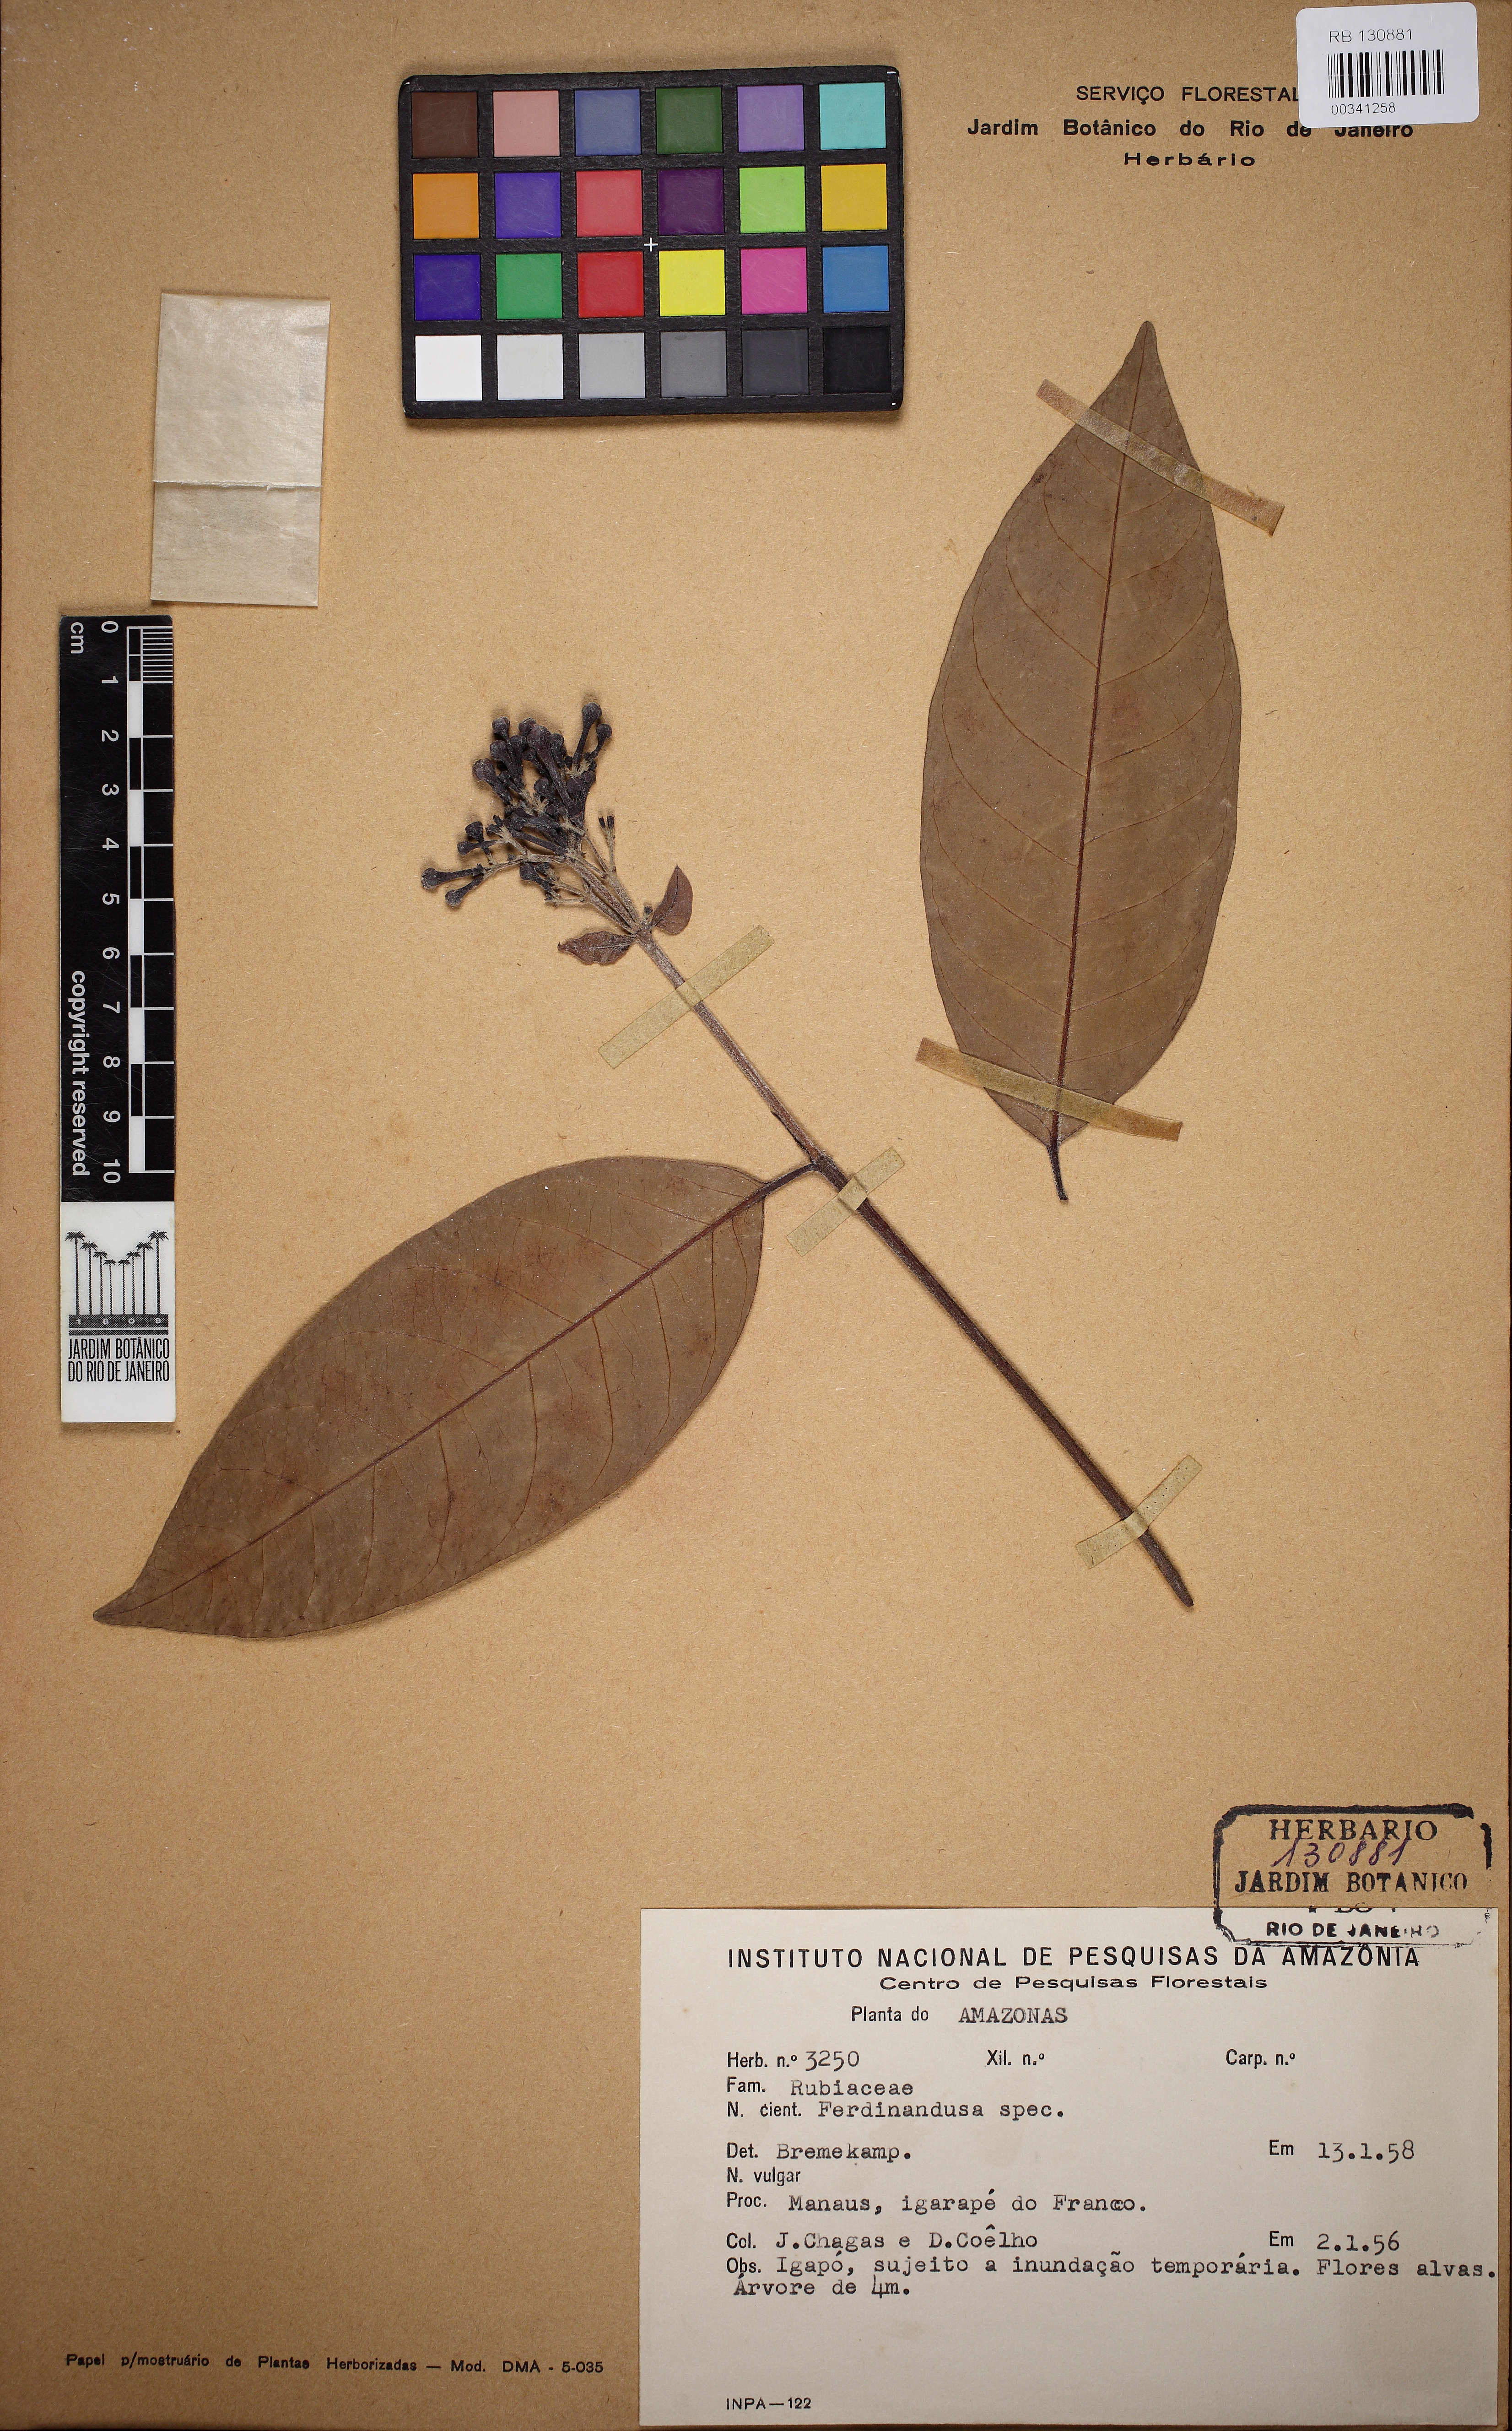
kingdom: Plantae
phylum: Tracheophyta
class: Magnoliopsida
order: Gentianales
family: Rubiaceae
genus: Ferdinandusa
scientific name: Ferdinandusa goudotiana
